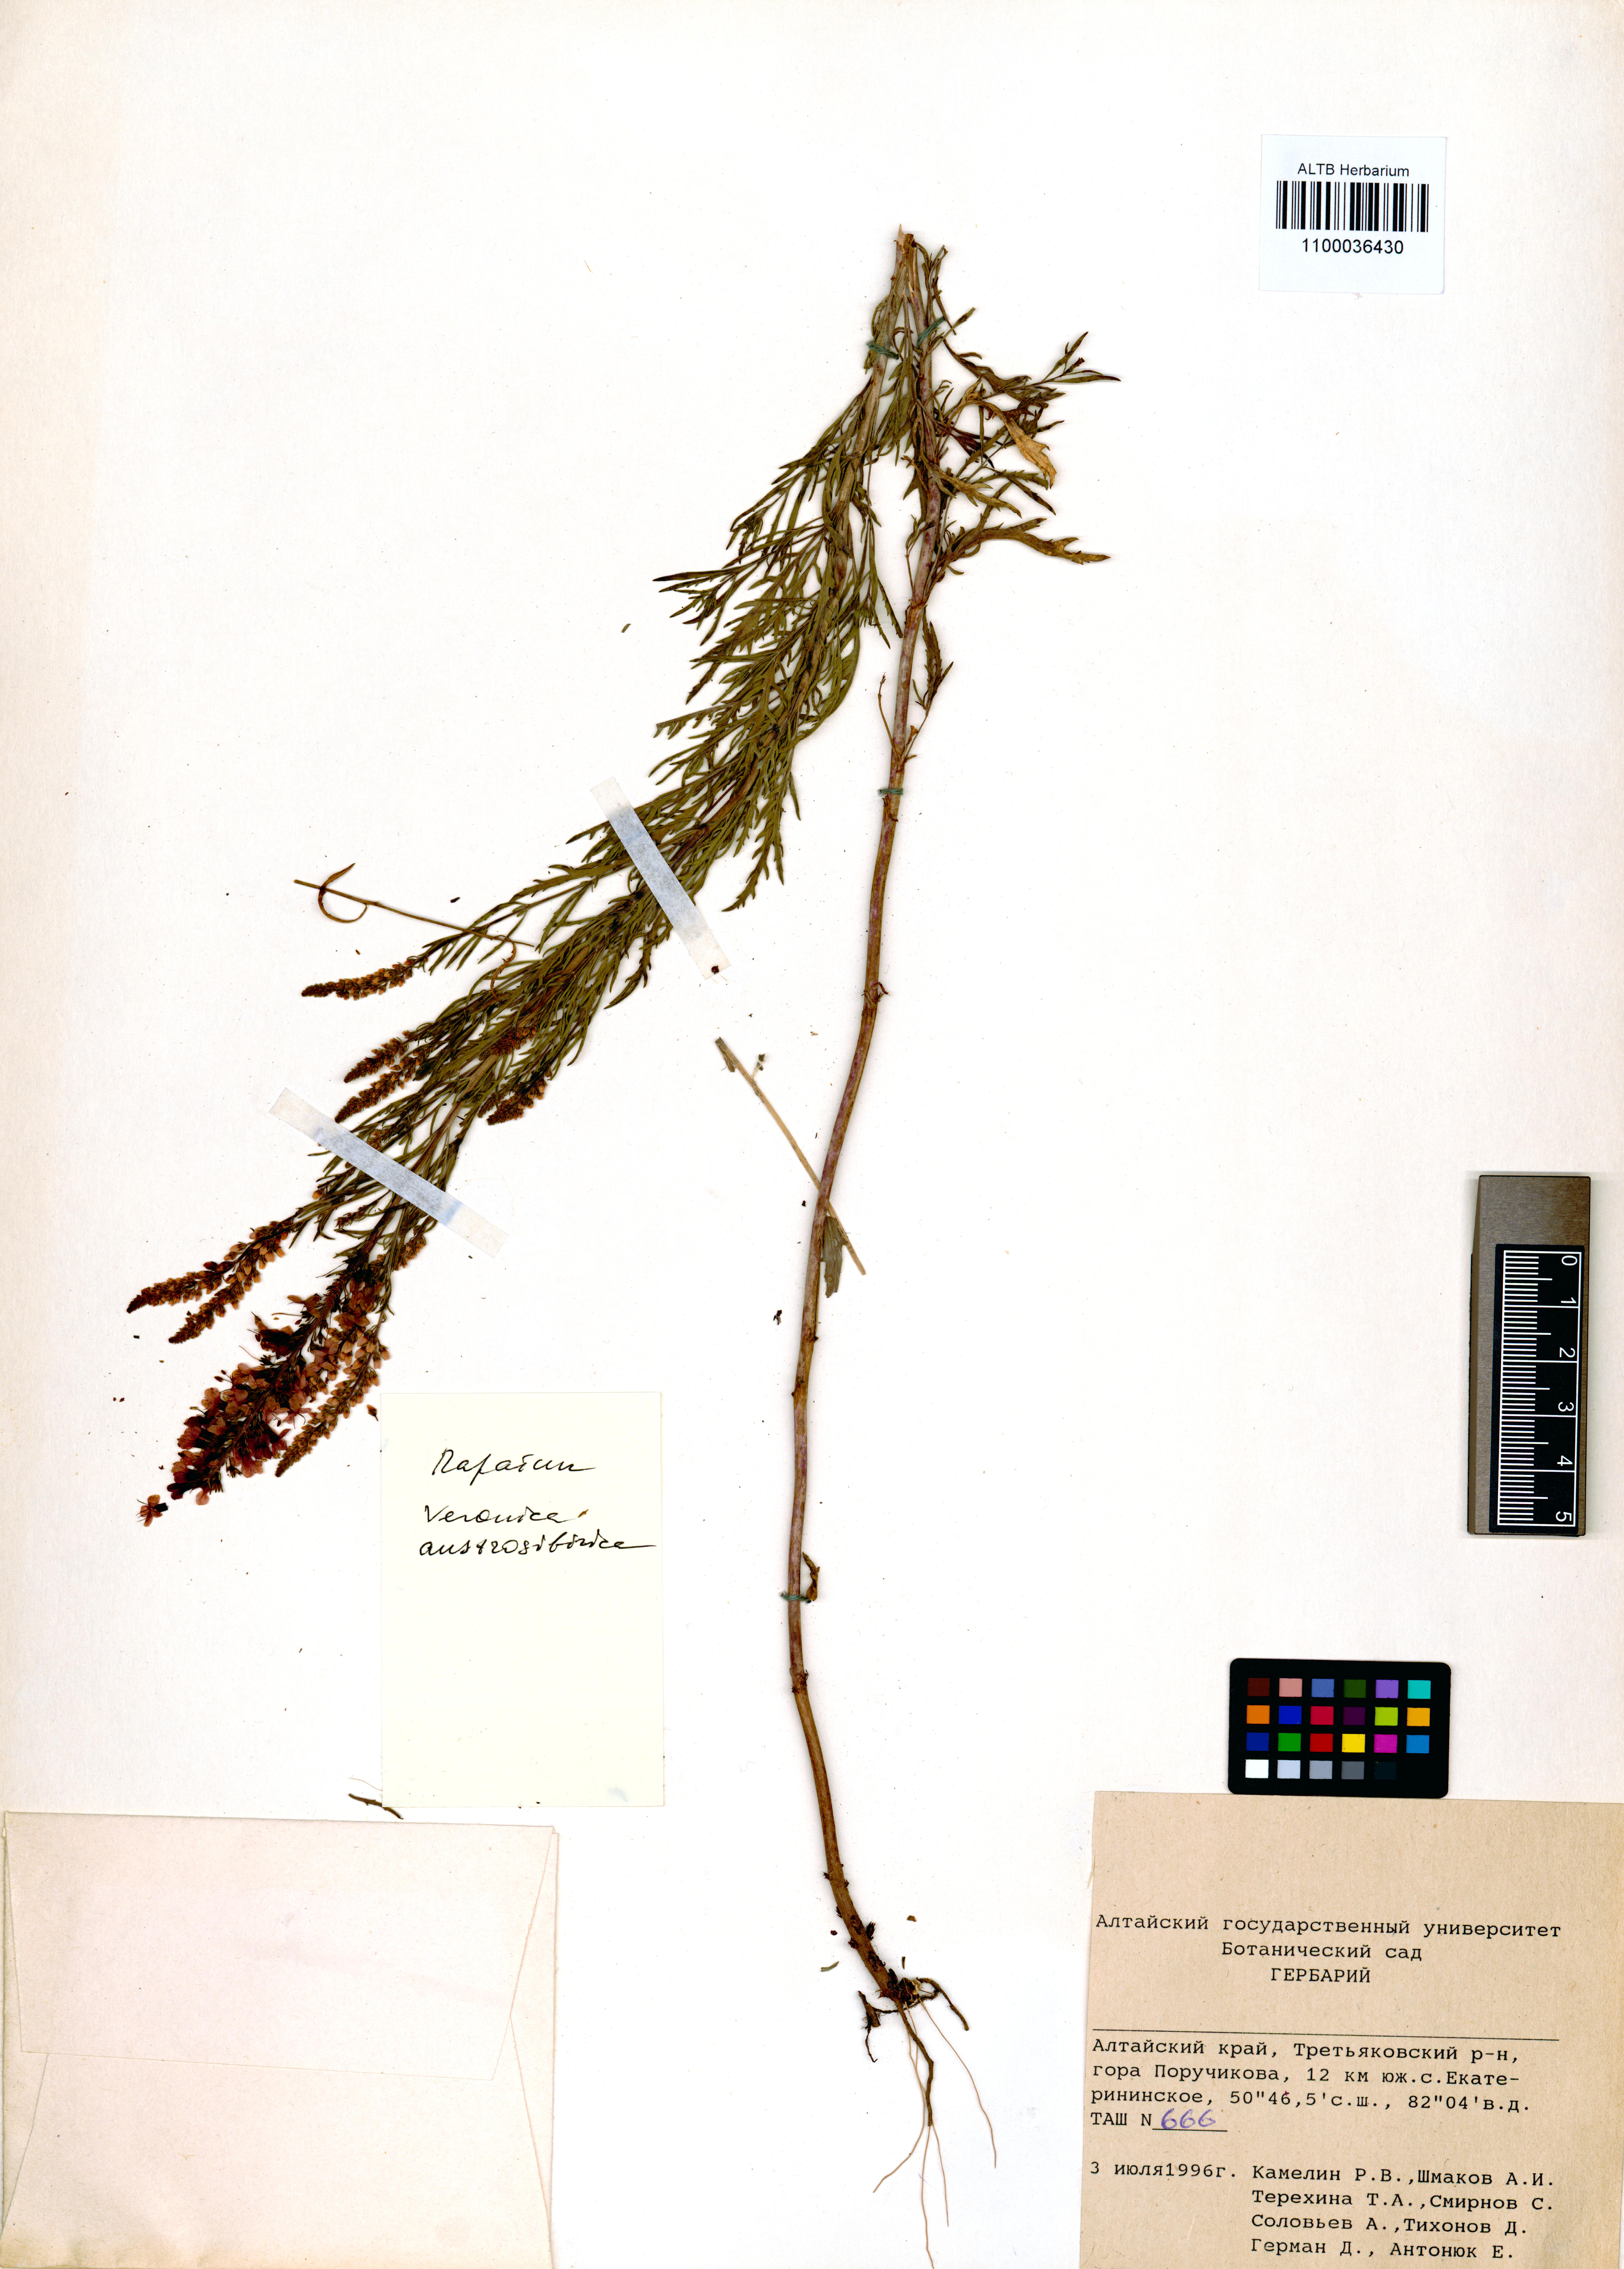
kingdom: Plantae
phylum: Tracheophyta
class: Magnoliopsida
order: Lamiales
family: Plantaginaceae
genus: Veronica
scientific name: Veronica altaica
